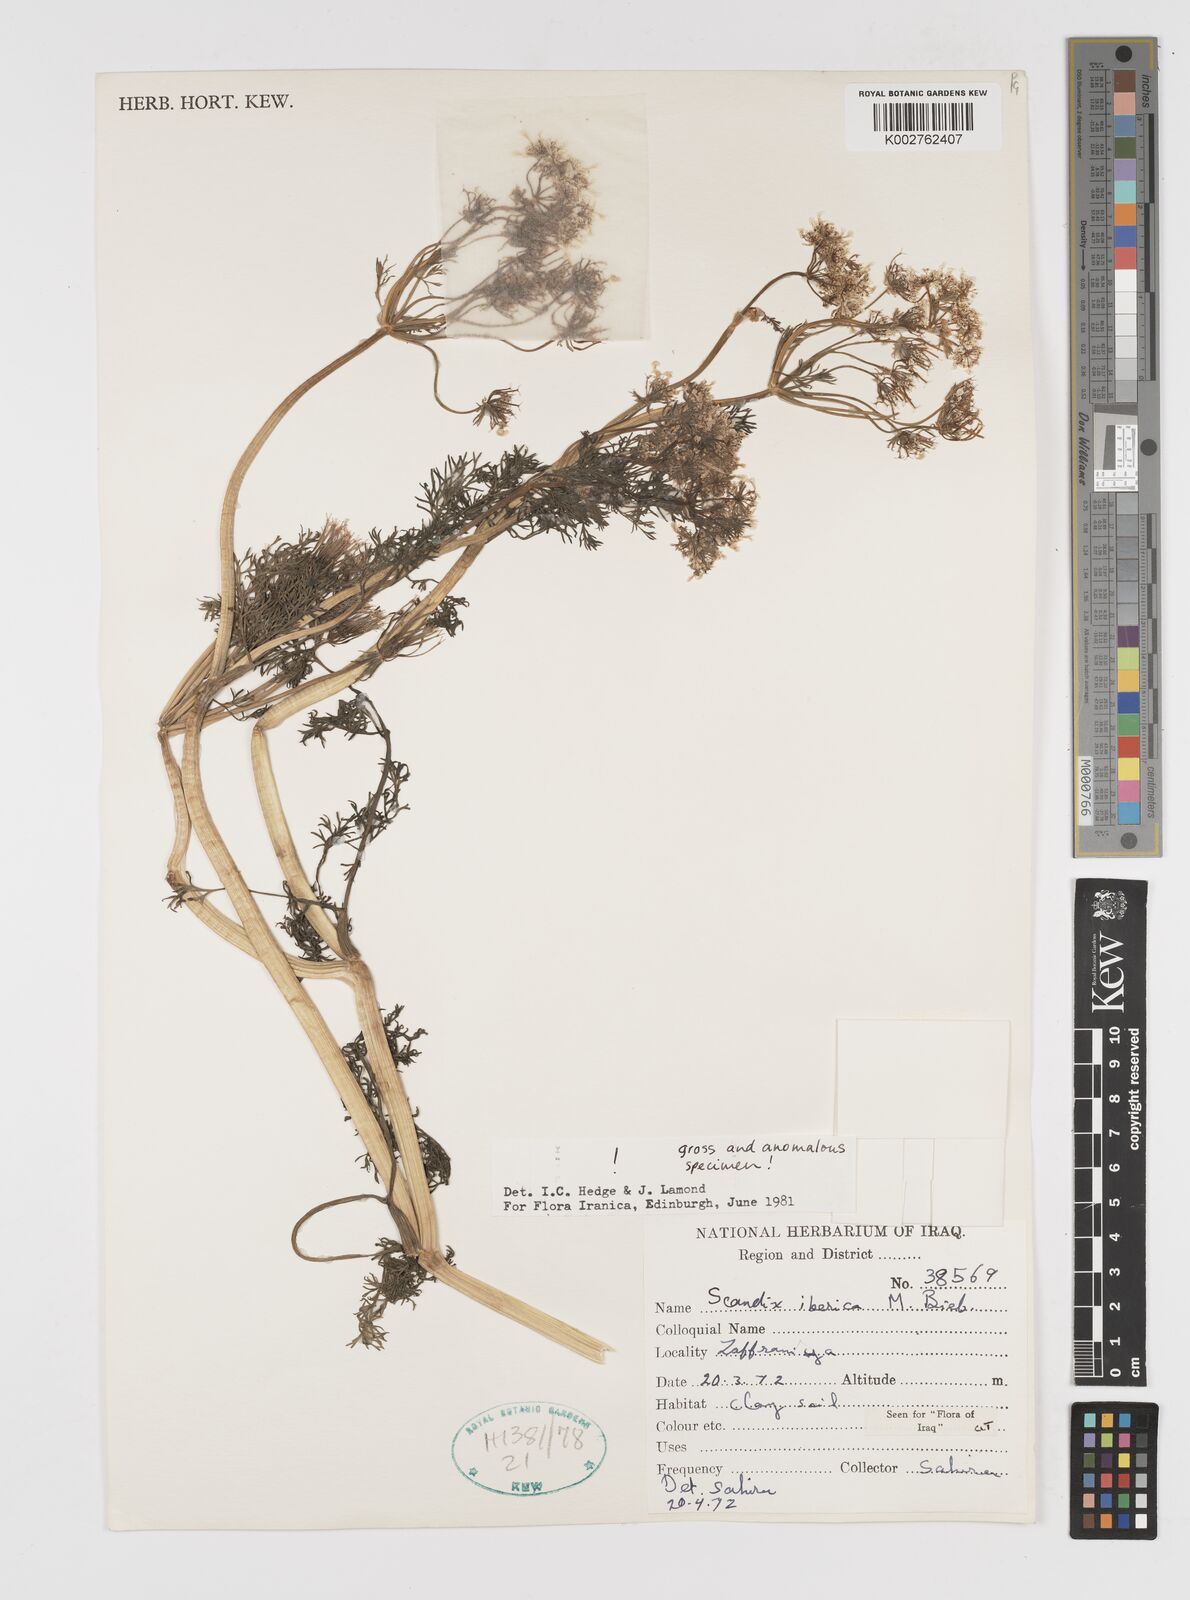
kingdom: Plantae
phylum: Tracheophyta
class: Magnoliopsida
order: Apiales
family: Apiaceae
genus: Scandix
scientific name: Scandix iberica
